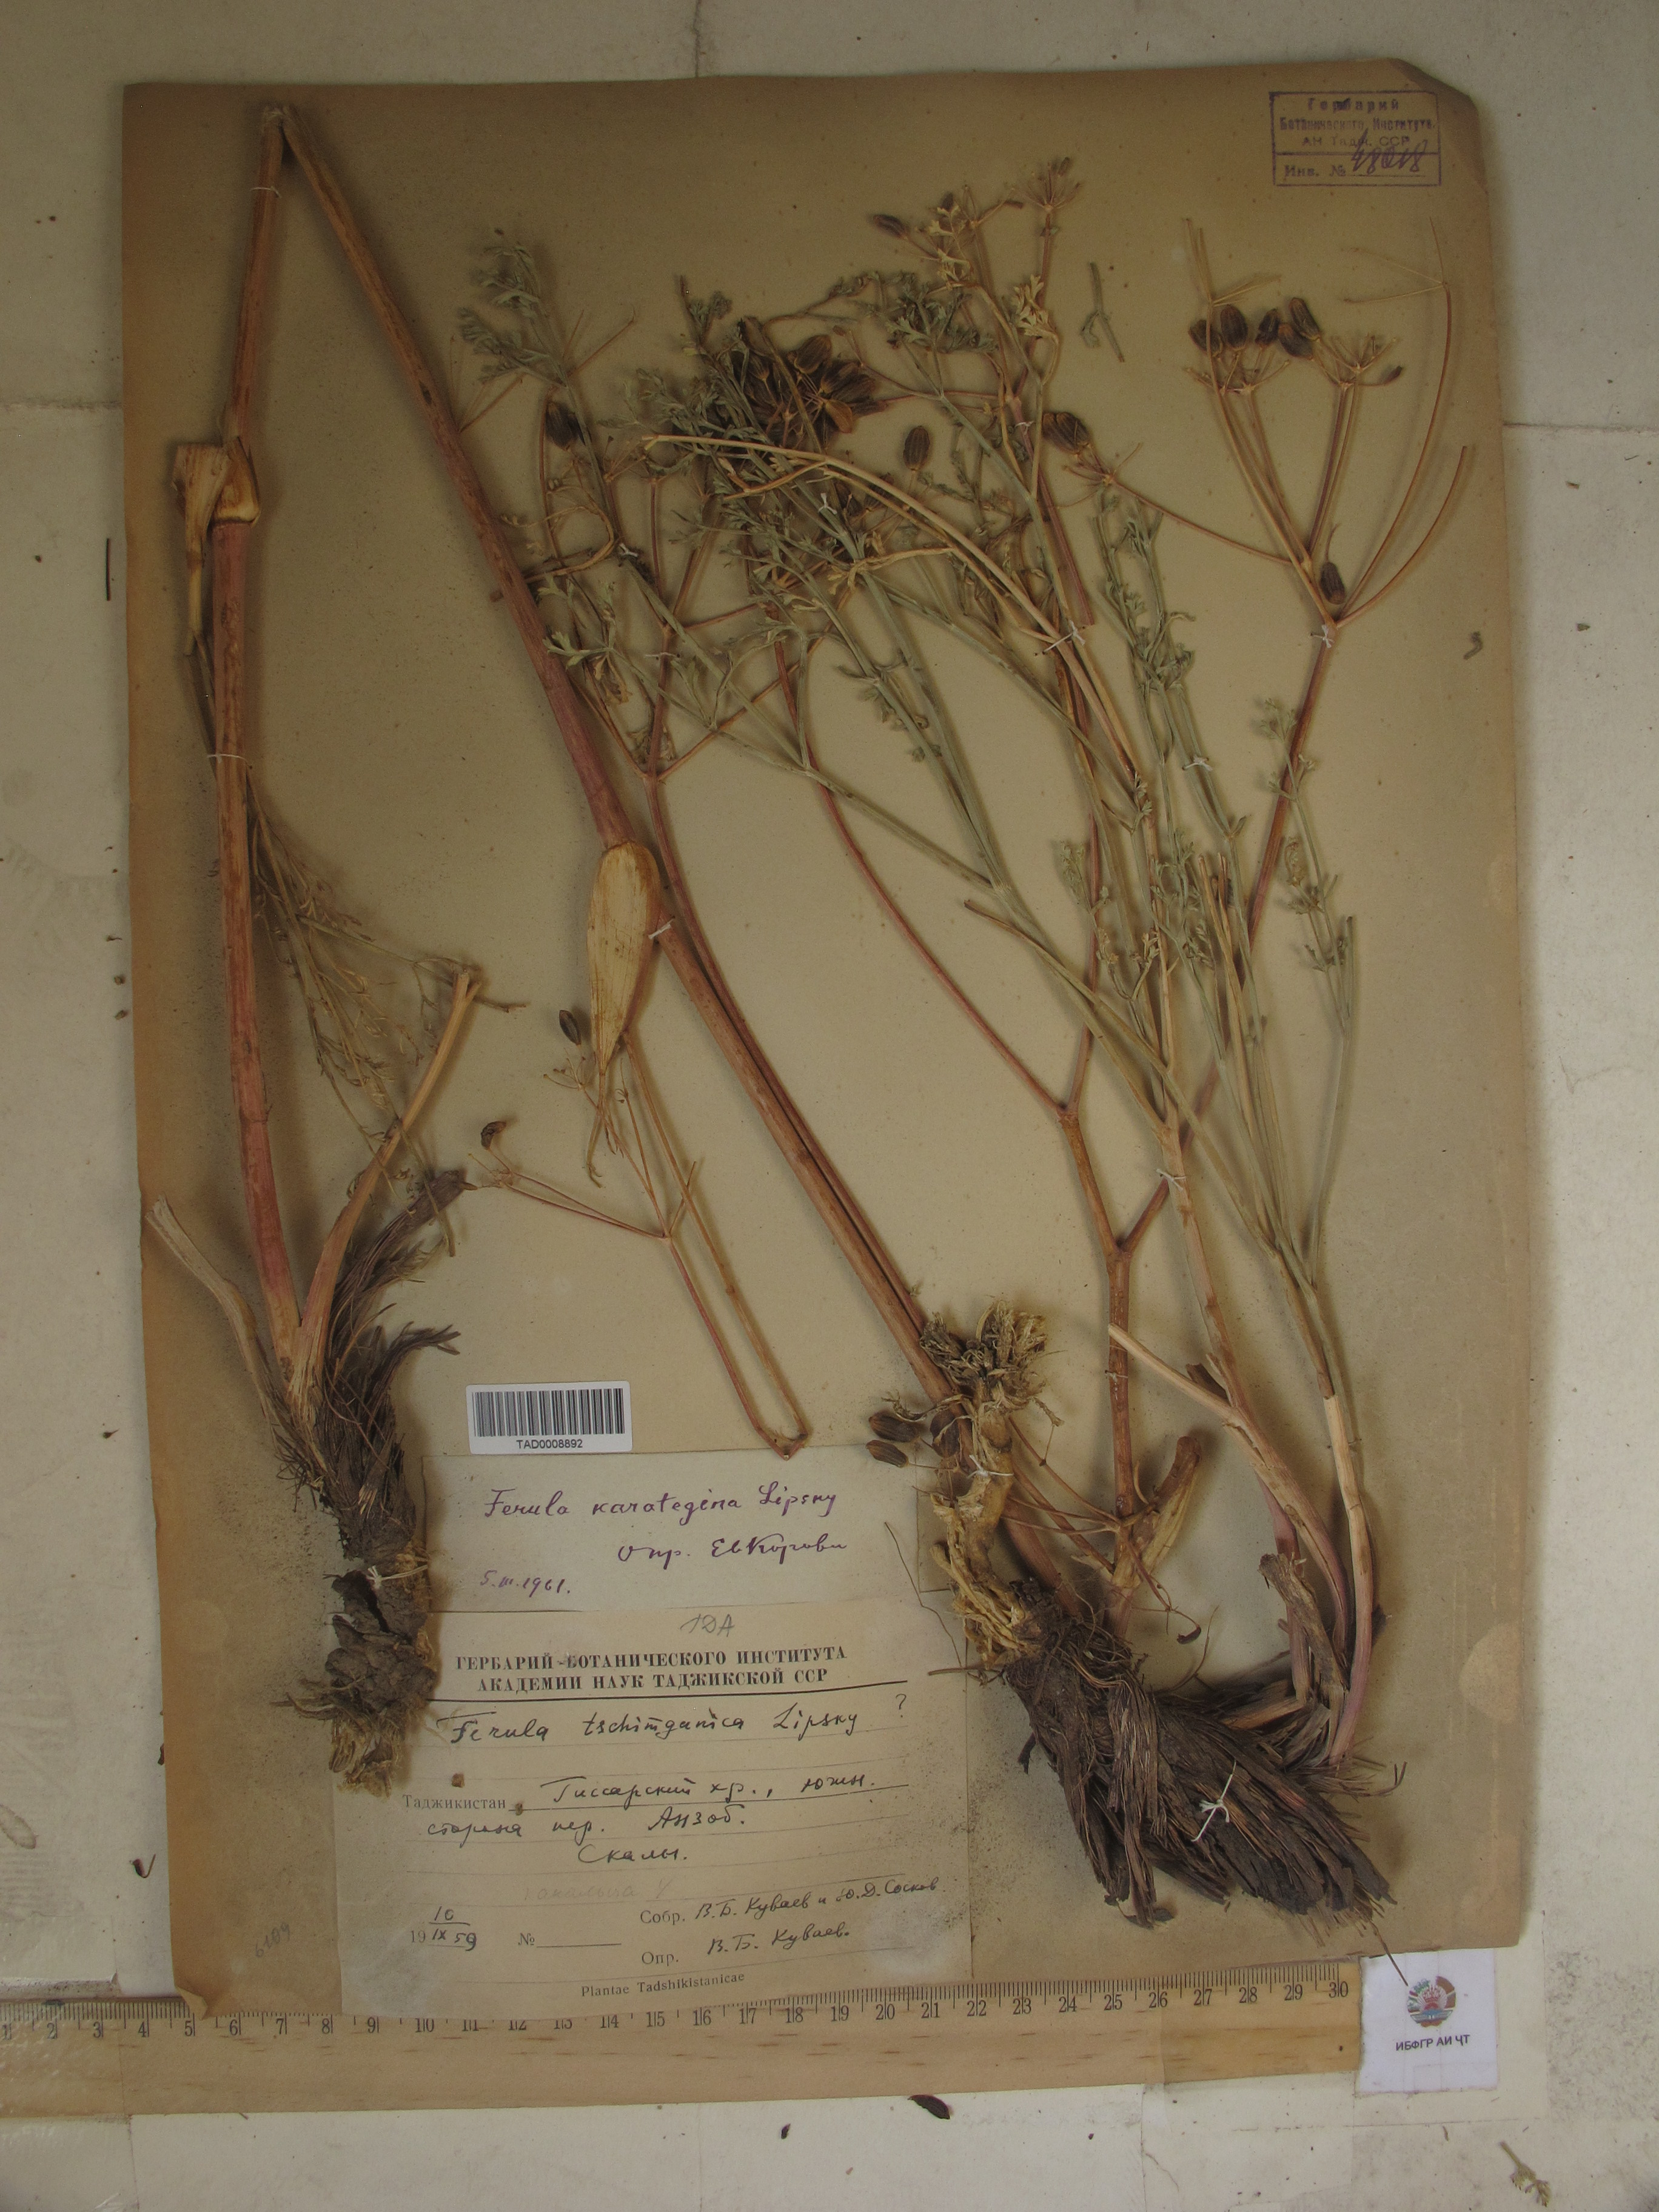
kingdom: Plantae
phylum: Tracheophyta
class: Magnoliopsida
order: Apiales
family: Apiaceae
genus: Ferula
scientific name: Ferula karategina
